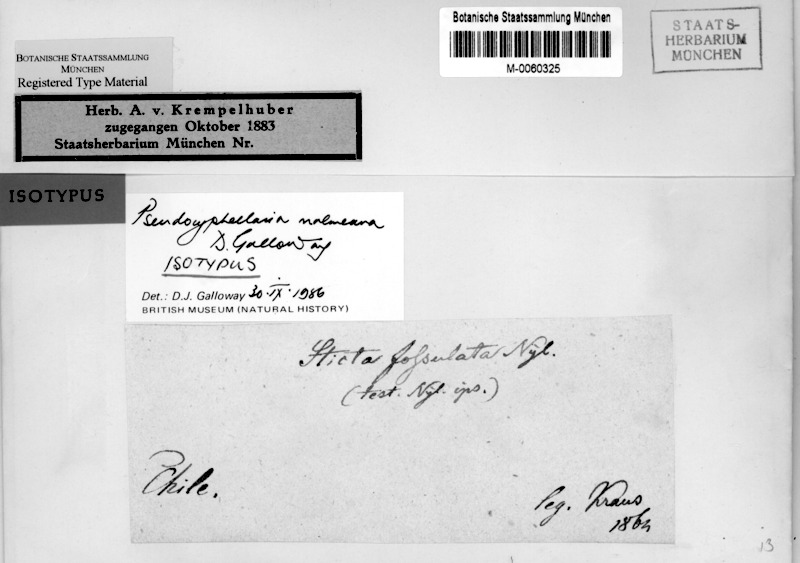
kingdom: Fungi
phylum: Ascomycota
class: Lecanoromycetes
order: Peltigerales
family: Lobariaceae
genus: Pseudocyphellaria
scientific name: Pseudocyphellaria malmeana
